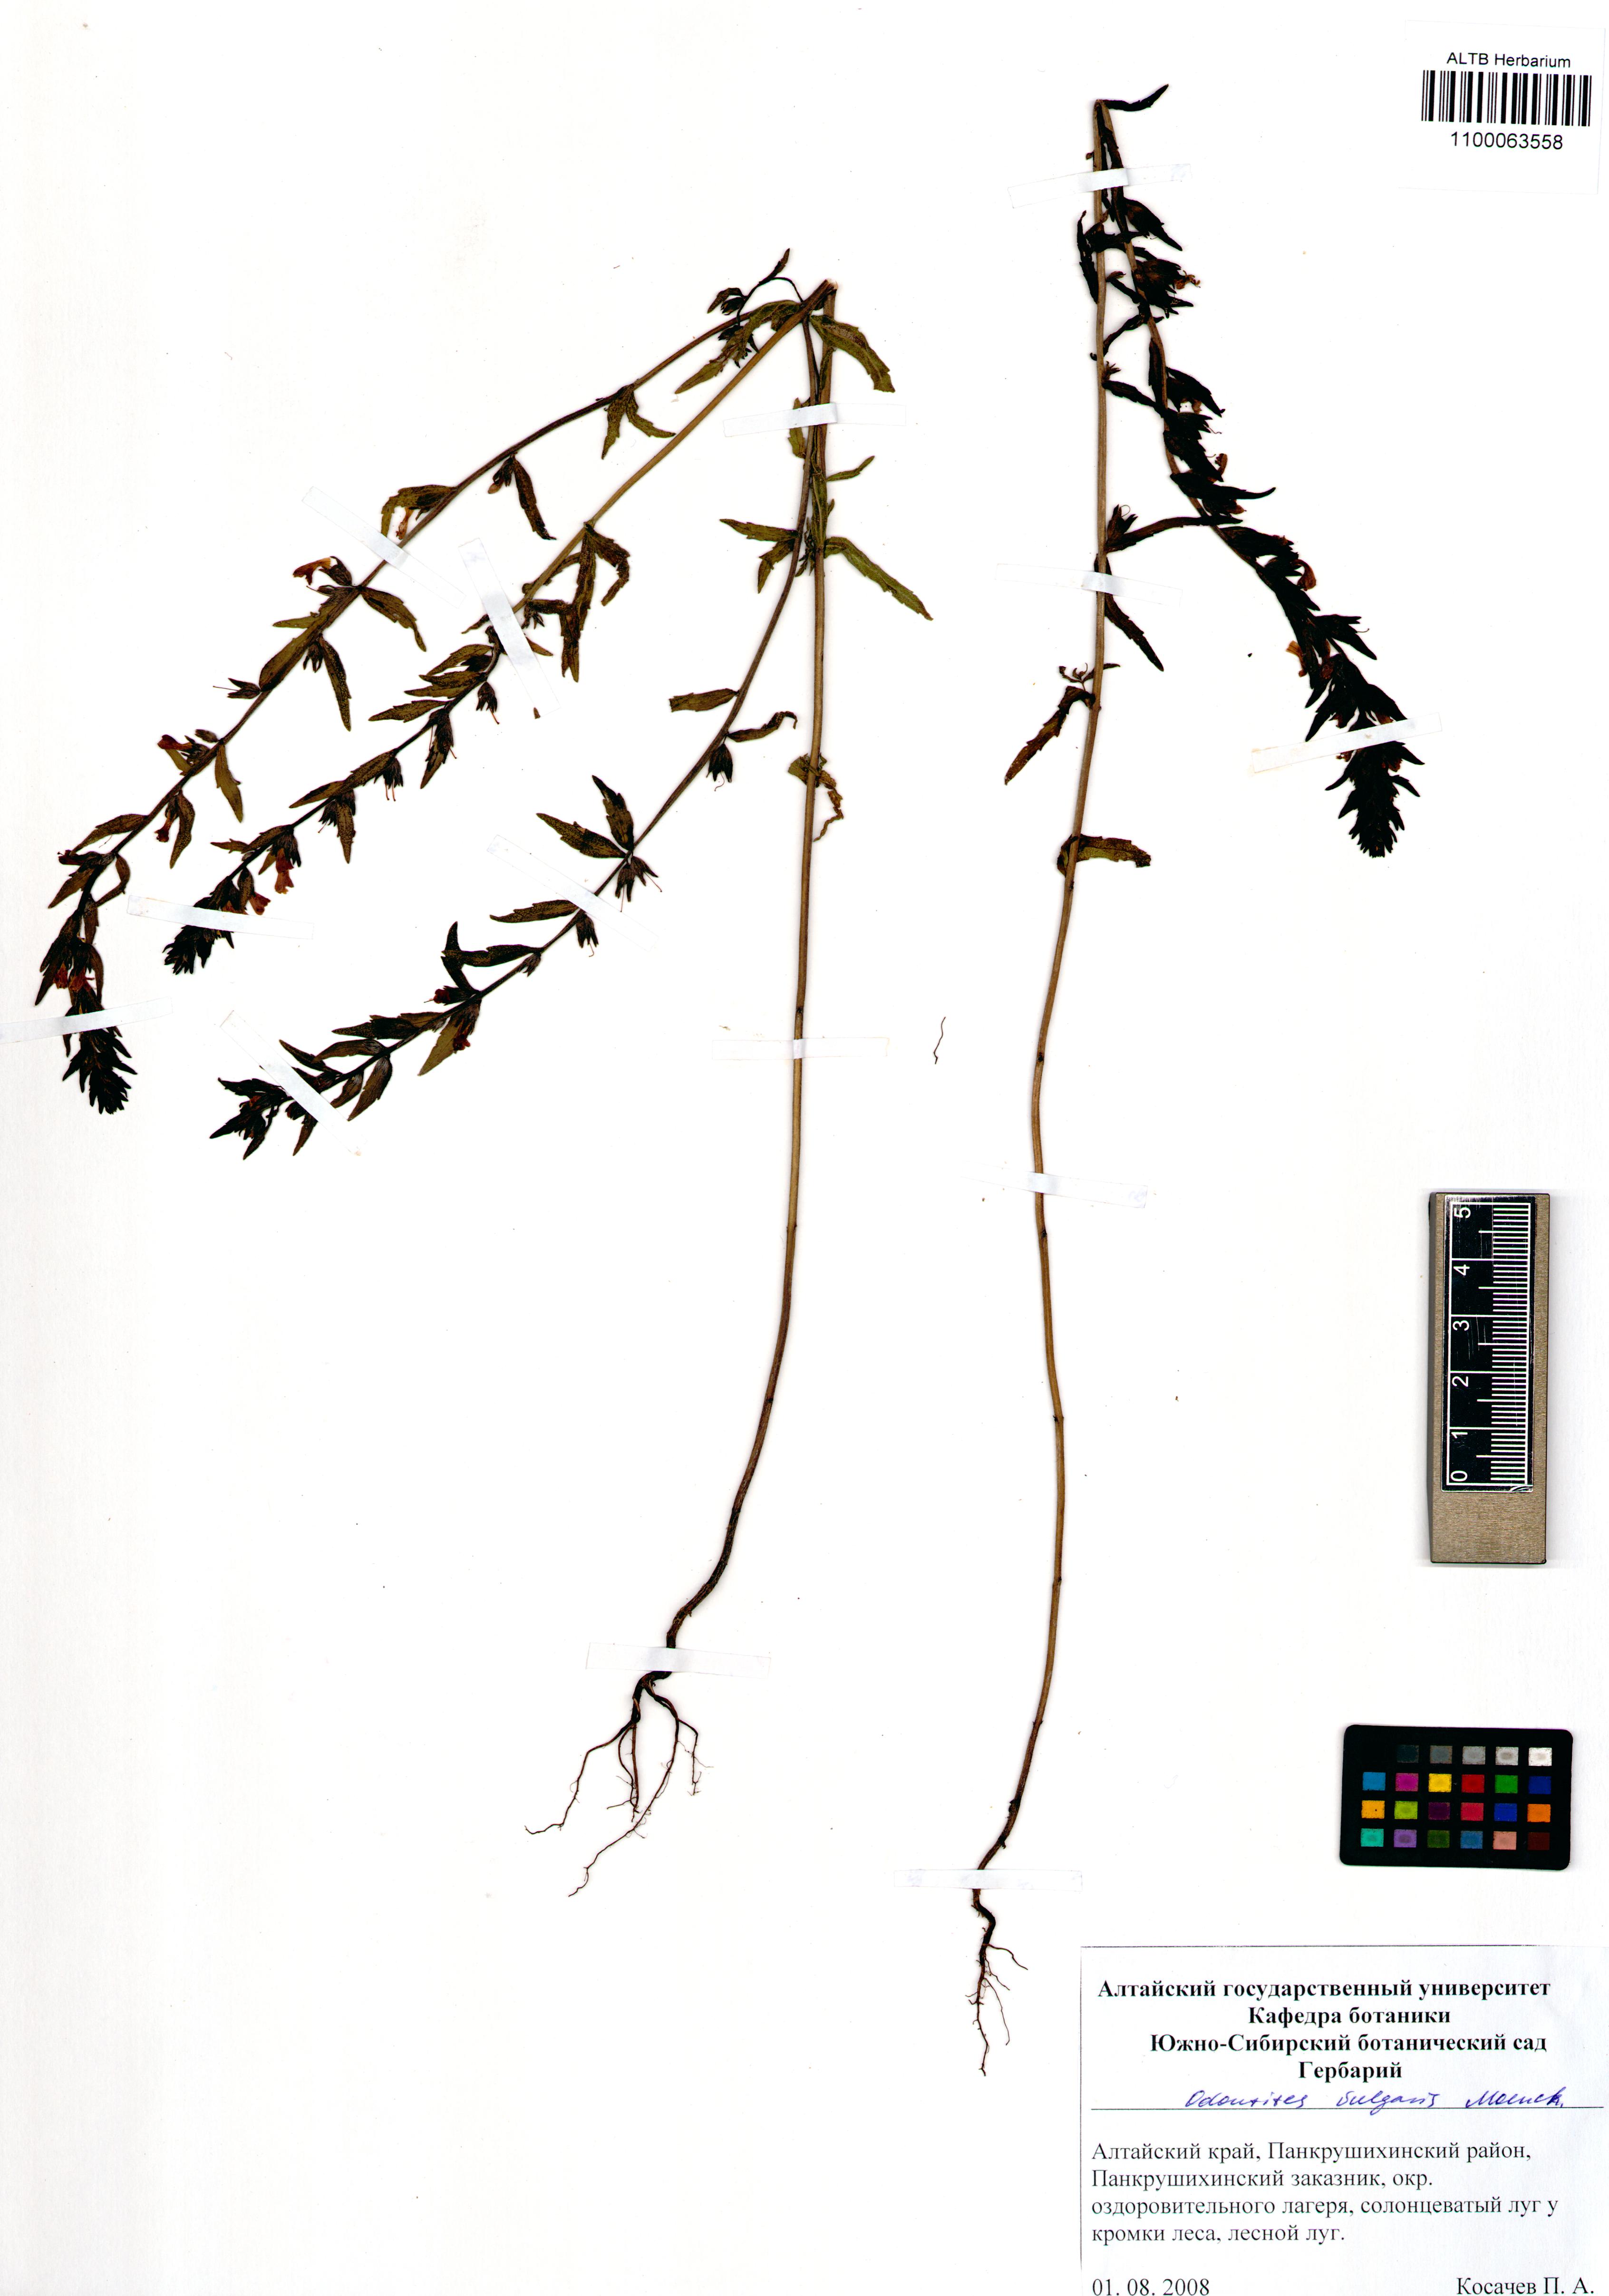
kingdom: Plantae
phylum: Tracheophyta
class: Magnoliopsida
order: Lamiales
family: Orobanchaceae
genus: Odontites
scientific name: Odontites vulgaris
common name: Broomrape
